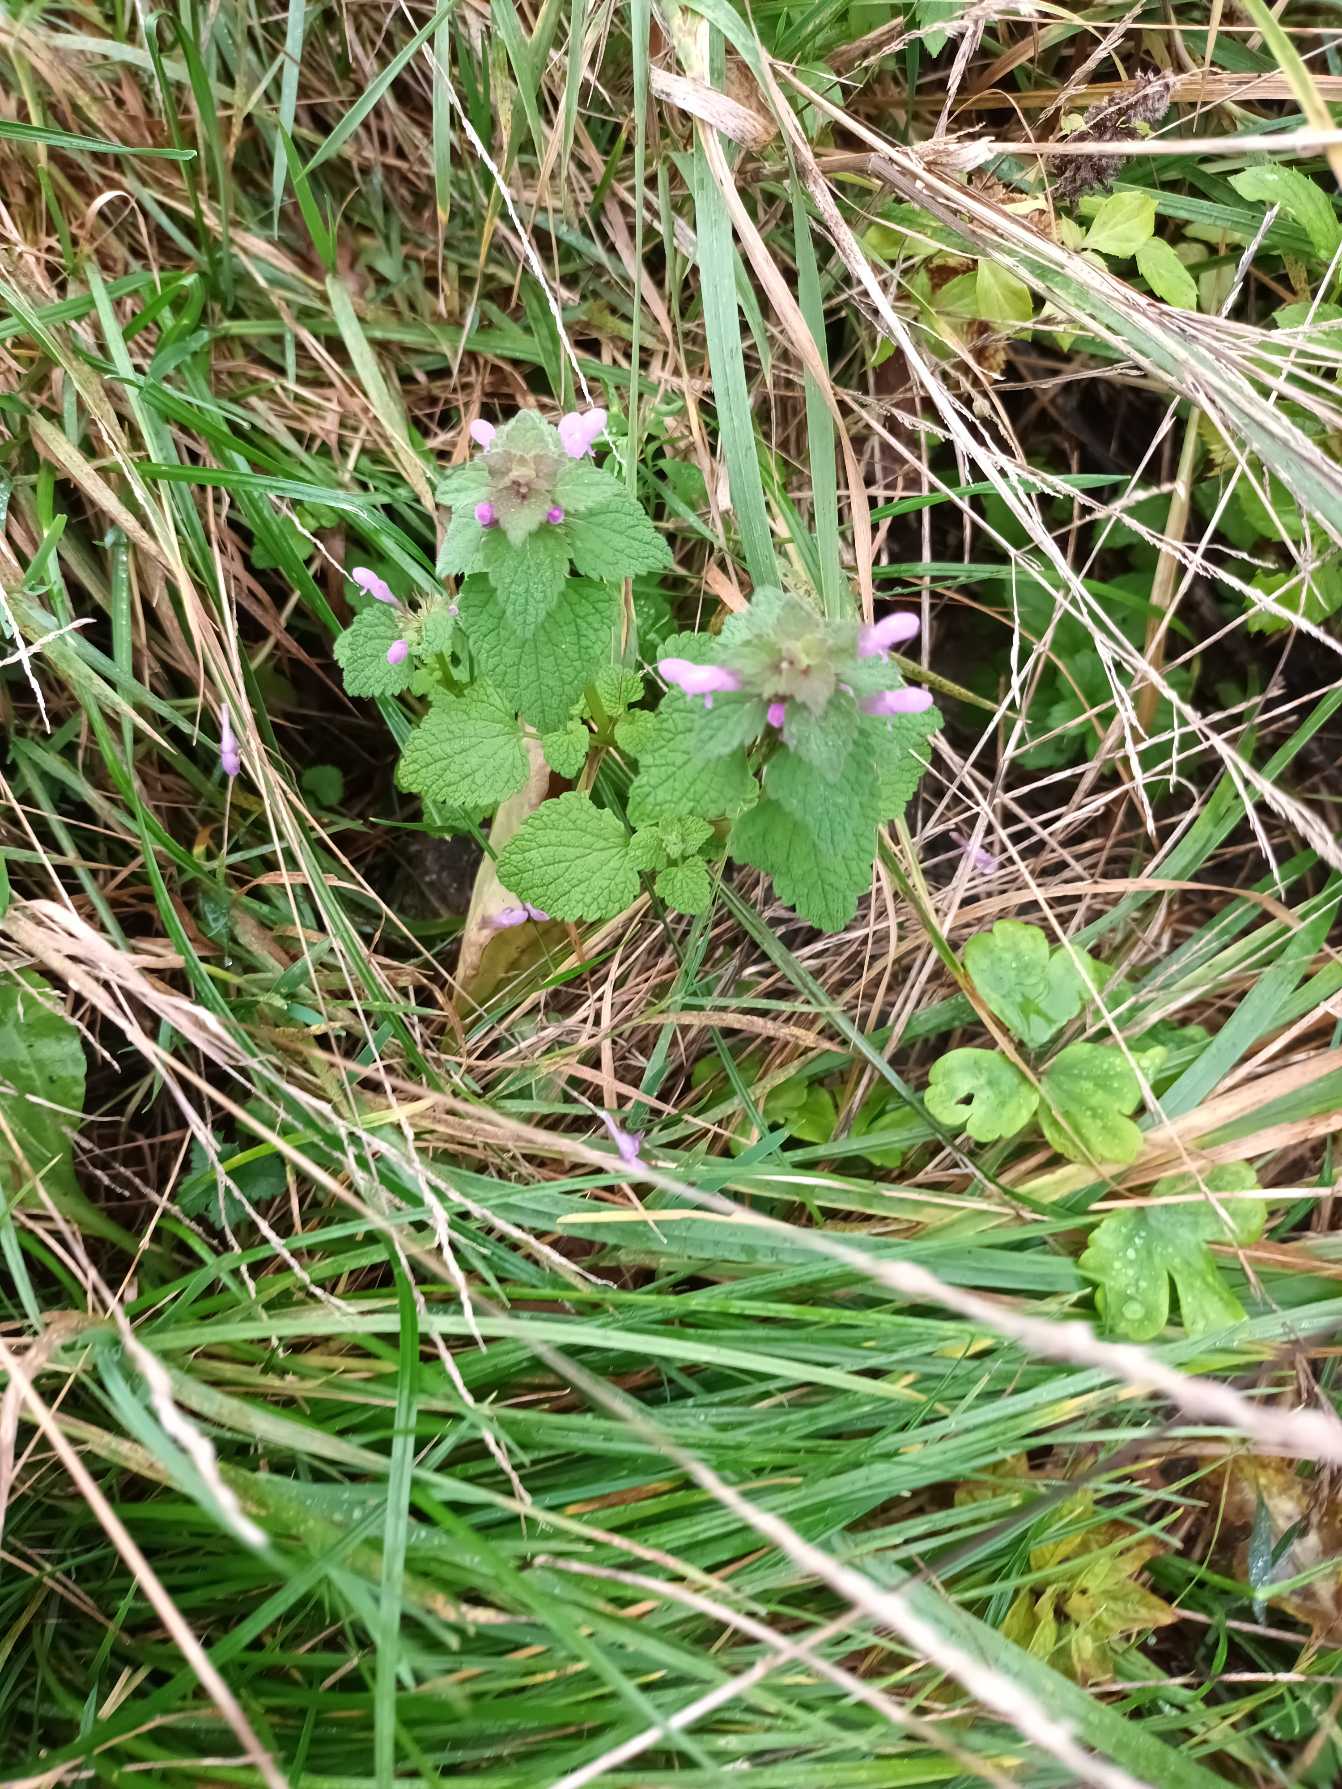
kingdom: Plantae
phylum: Tracheophyta
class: Magnoliopsida
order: Lamiales
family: Lamiaceae
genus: Lamium
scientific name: Lamium purpureum
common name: Rød tvetand
